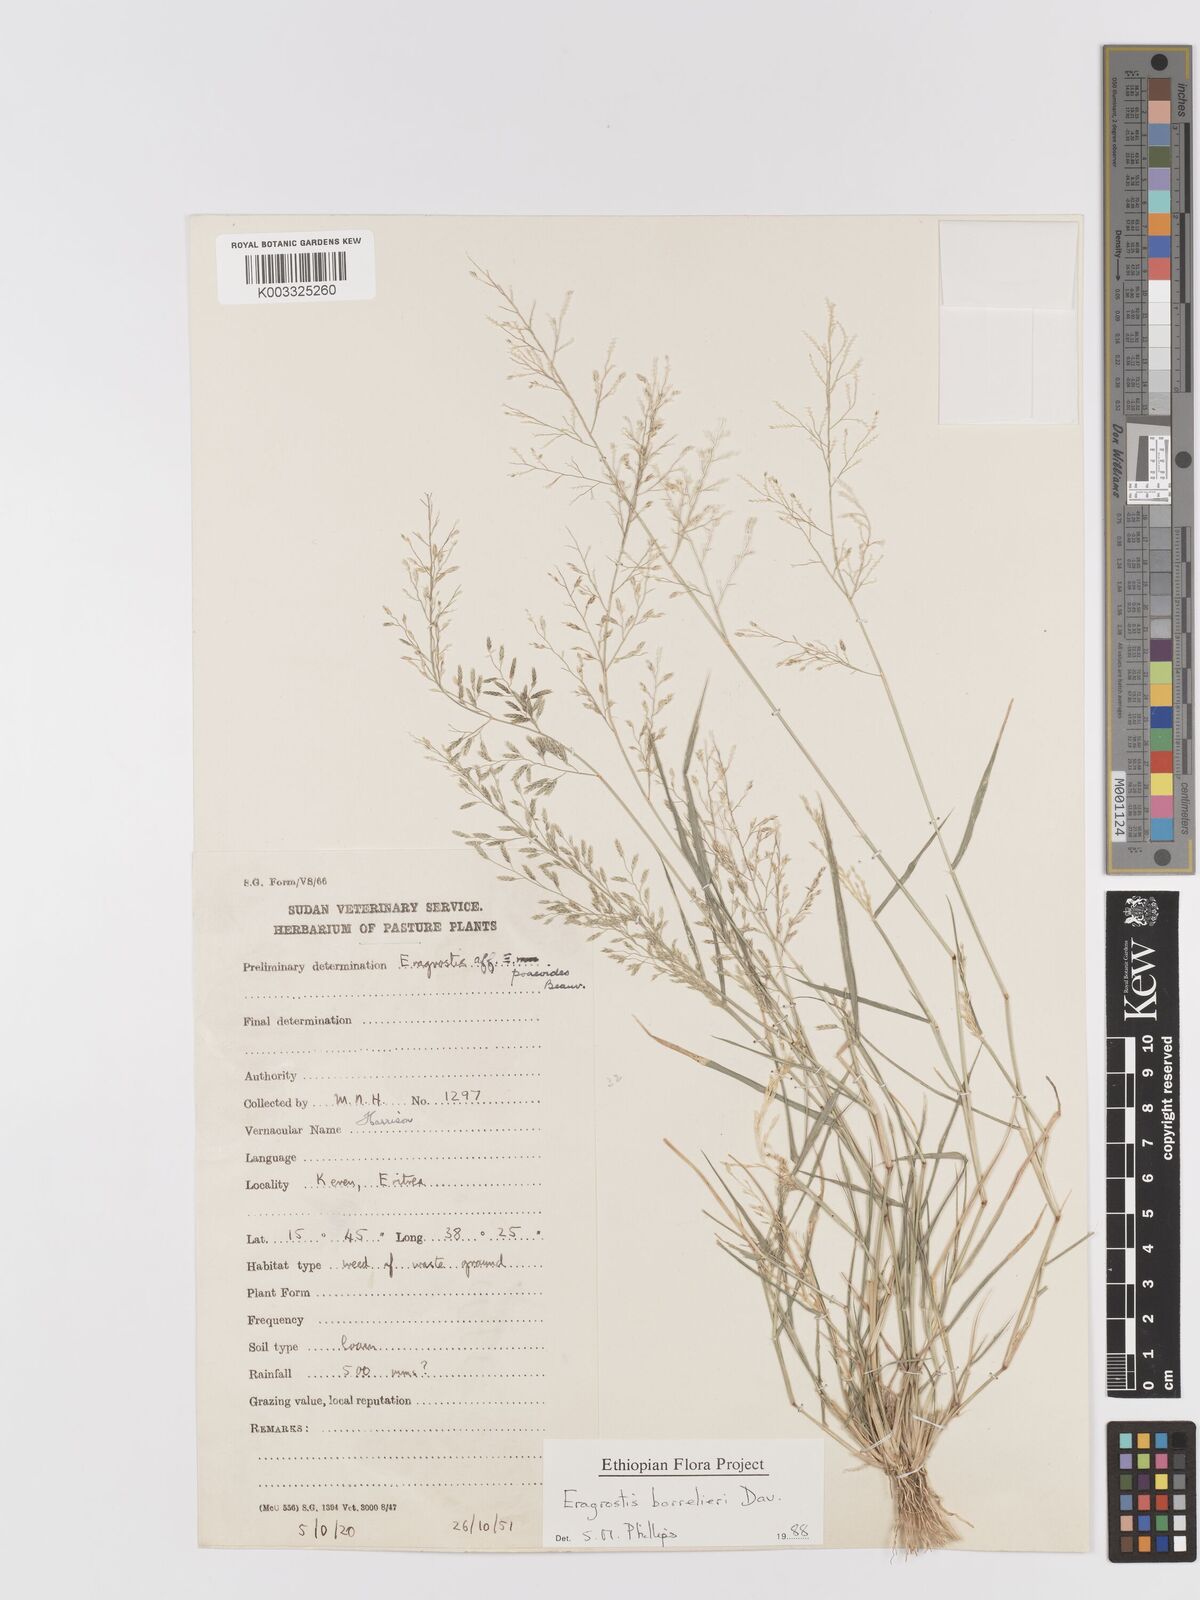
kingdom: Plantae
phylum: Tracheophyta
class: Liliopsida
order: Poales
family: Poaceae
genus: Eragrostis
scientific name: Eragrostis barrelieri
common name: Mediterranean lovegrass
